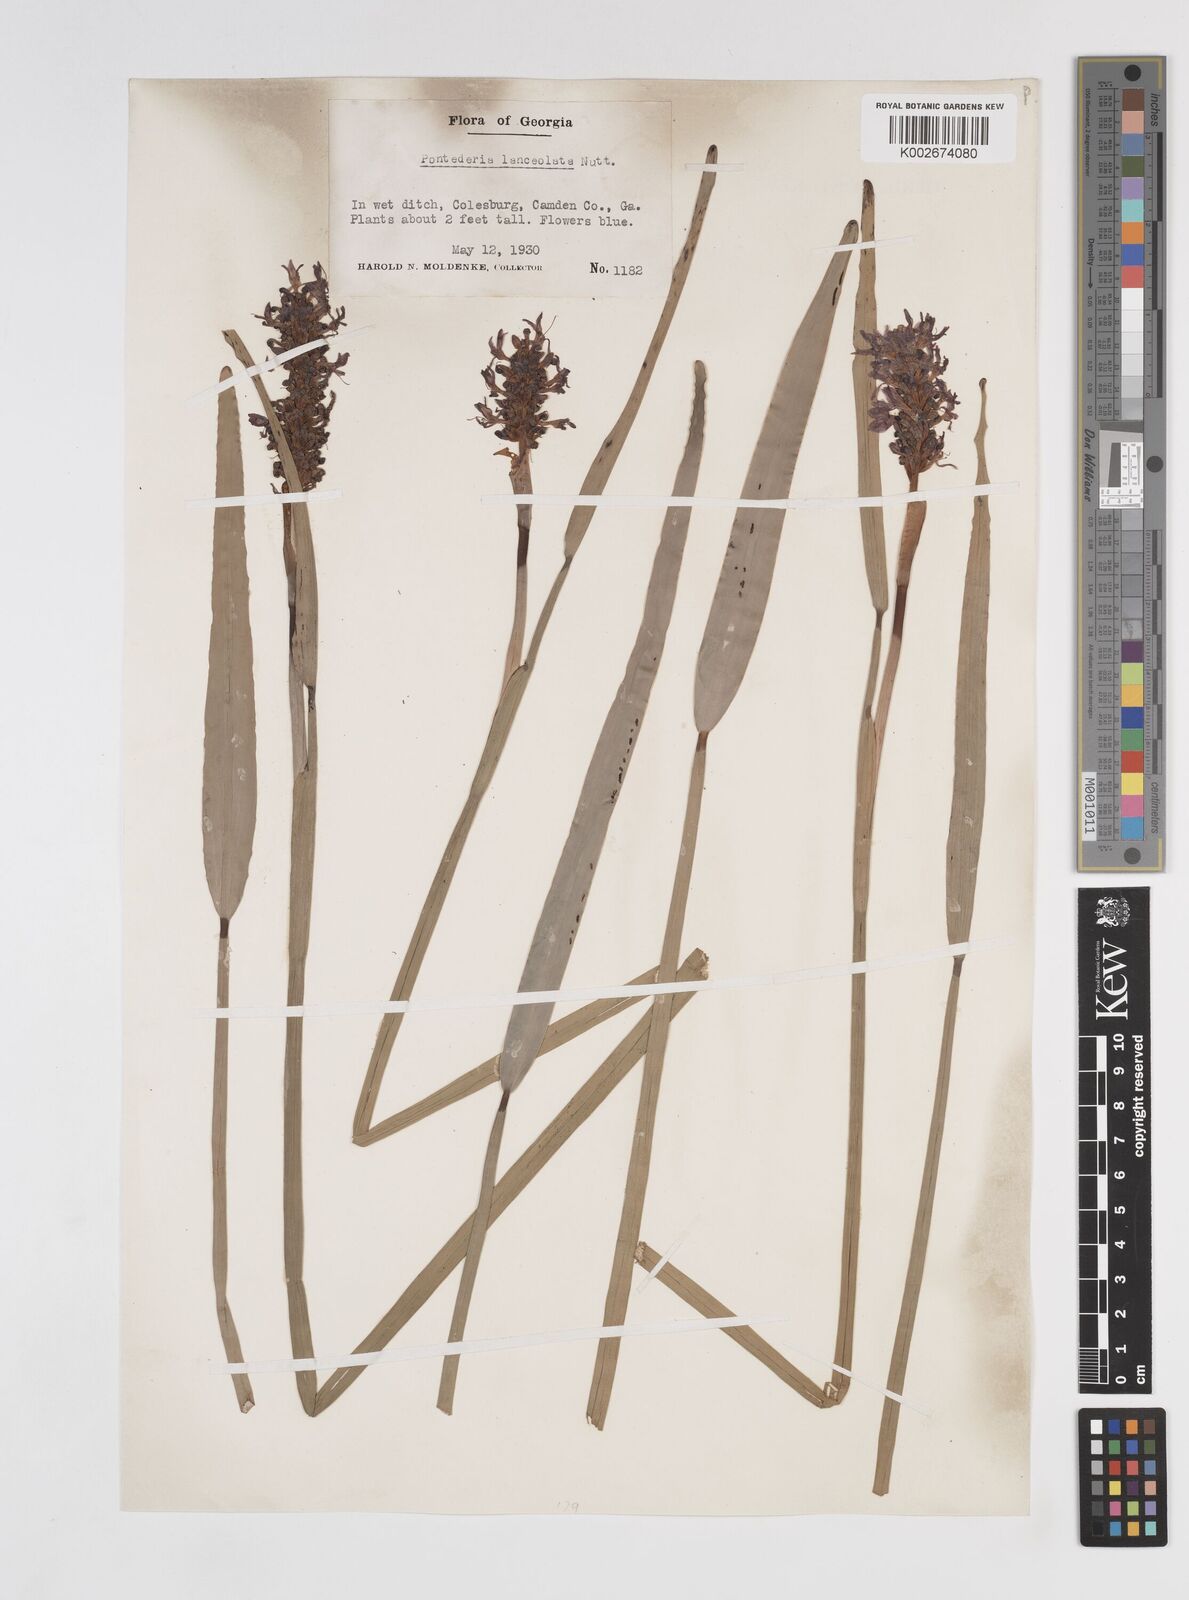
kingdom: Plantae
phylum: Tracheophyta
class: Liliopsida
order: Commelinales
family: Pontederiaceae
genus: Pontederia
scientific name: Pontederia cordata
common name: Pickerelweed
